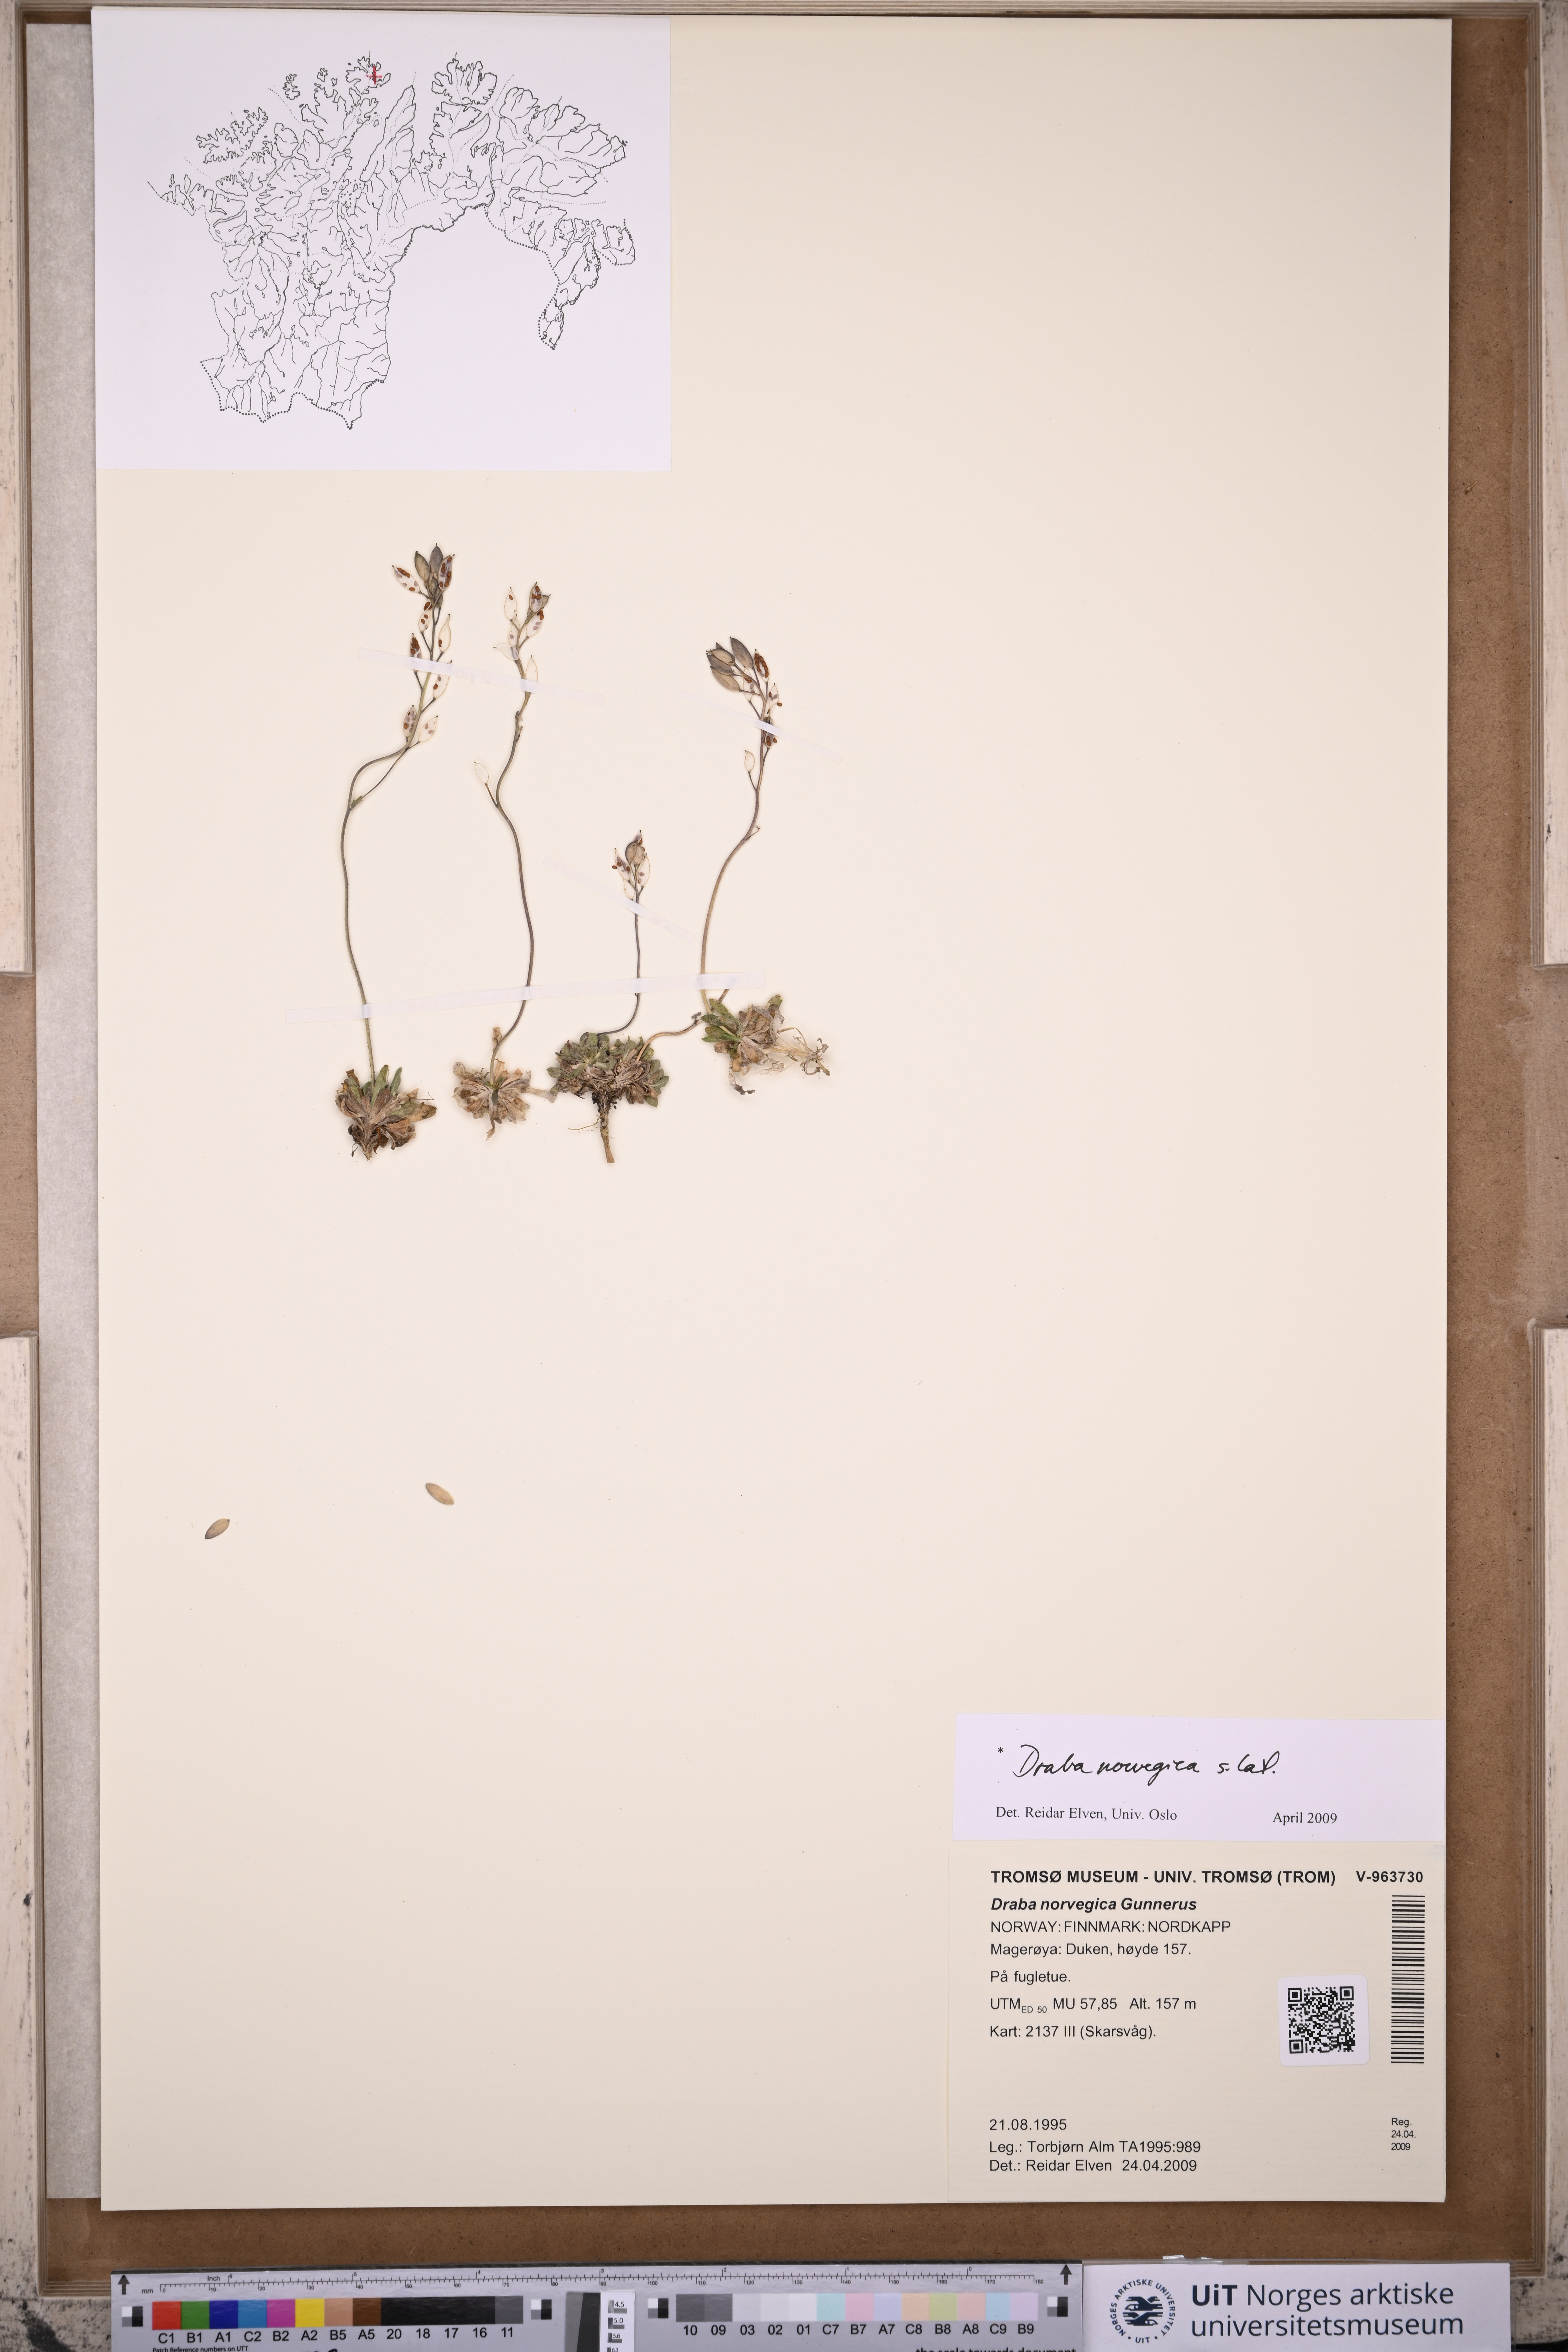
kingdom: Plantae
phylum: Tracheophyta
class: Magnoliopsida
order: Brassicales
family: Brassicaceae
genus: Draba
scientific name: Draba norvegica
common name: Rock whitlowgrass
